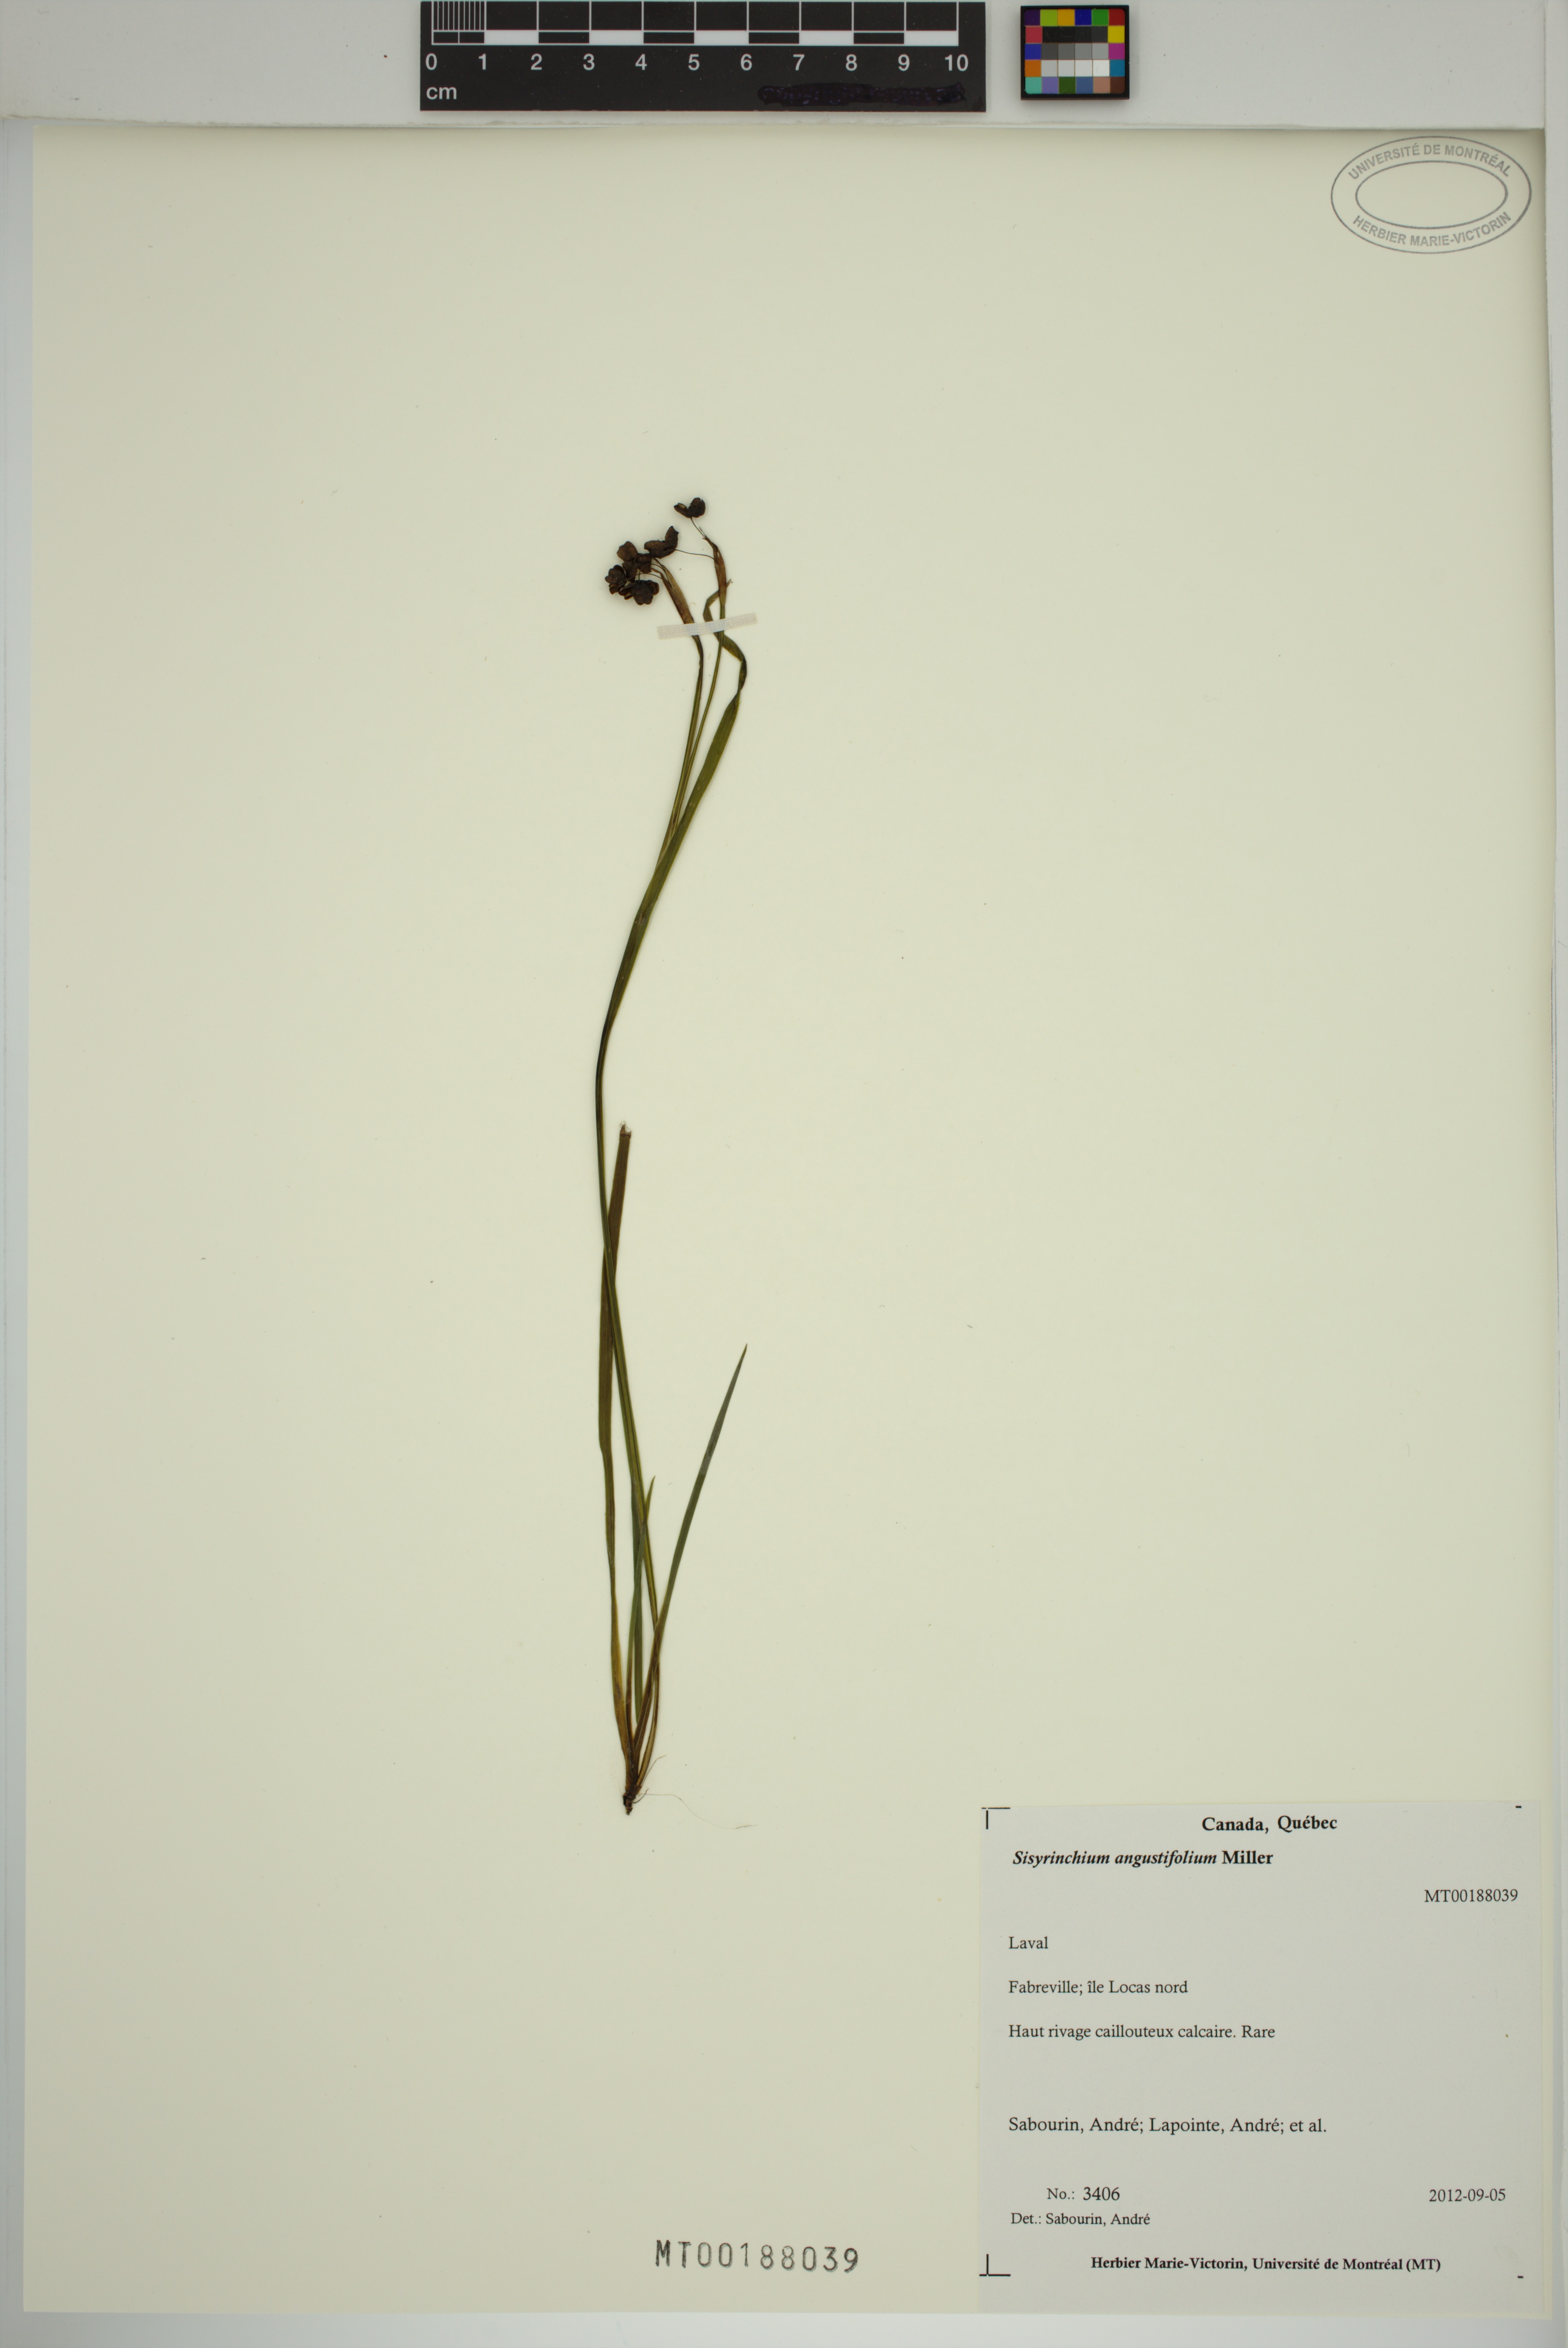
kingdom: Plantae
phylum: Tracheophyta
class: Liliopsida
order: Asparagales
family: Iridaceae
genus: Sisyrinchium
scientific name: Sisyrinchium angustifolium
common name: Narrow-leaf blue-eyed-grass
